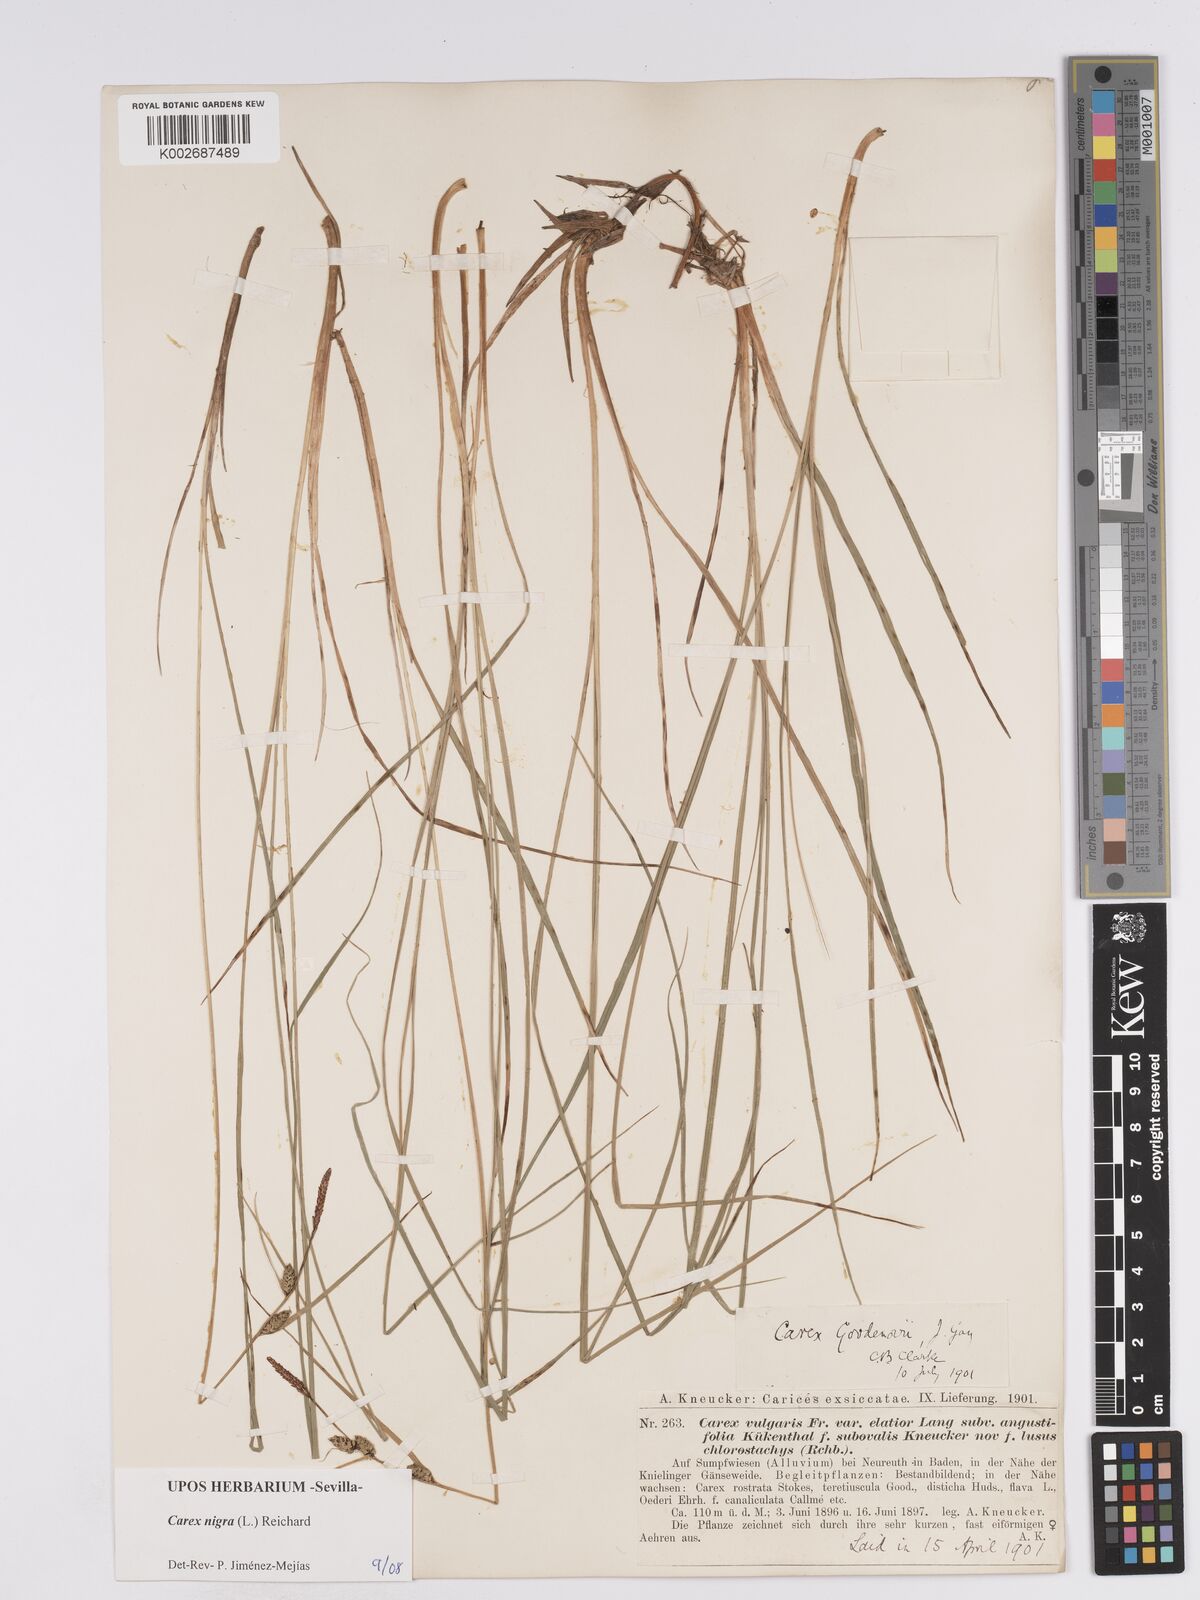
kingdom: Plantae
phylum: Tracheophyta
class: Liliopsida
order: Poales
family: Cyperaceae
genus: Carex
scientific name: Carex nigra
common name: Common sedge
